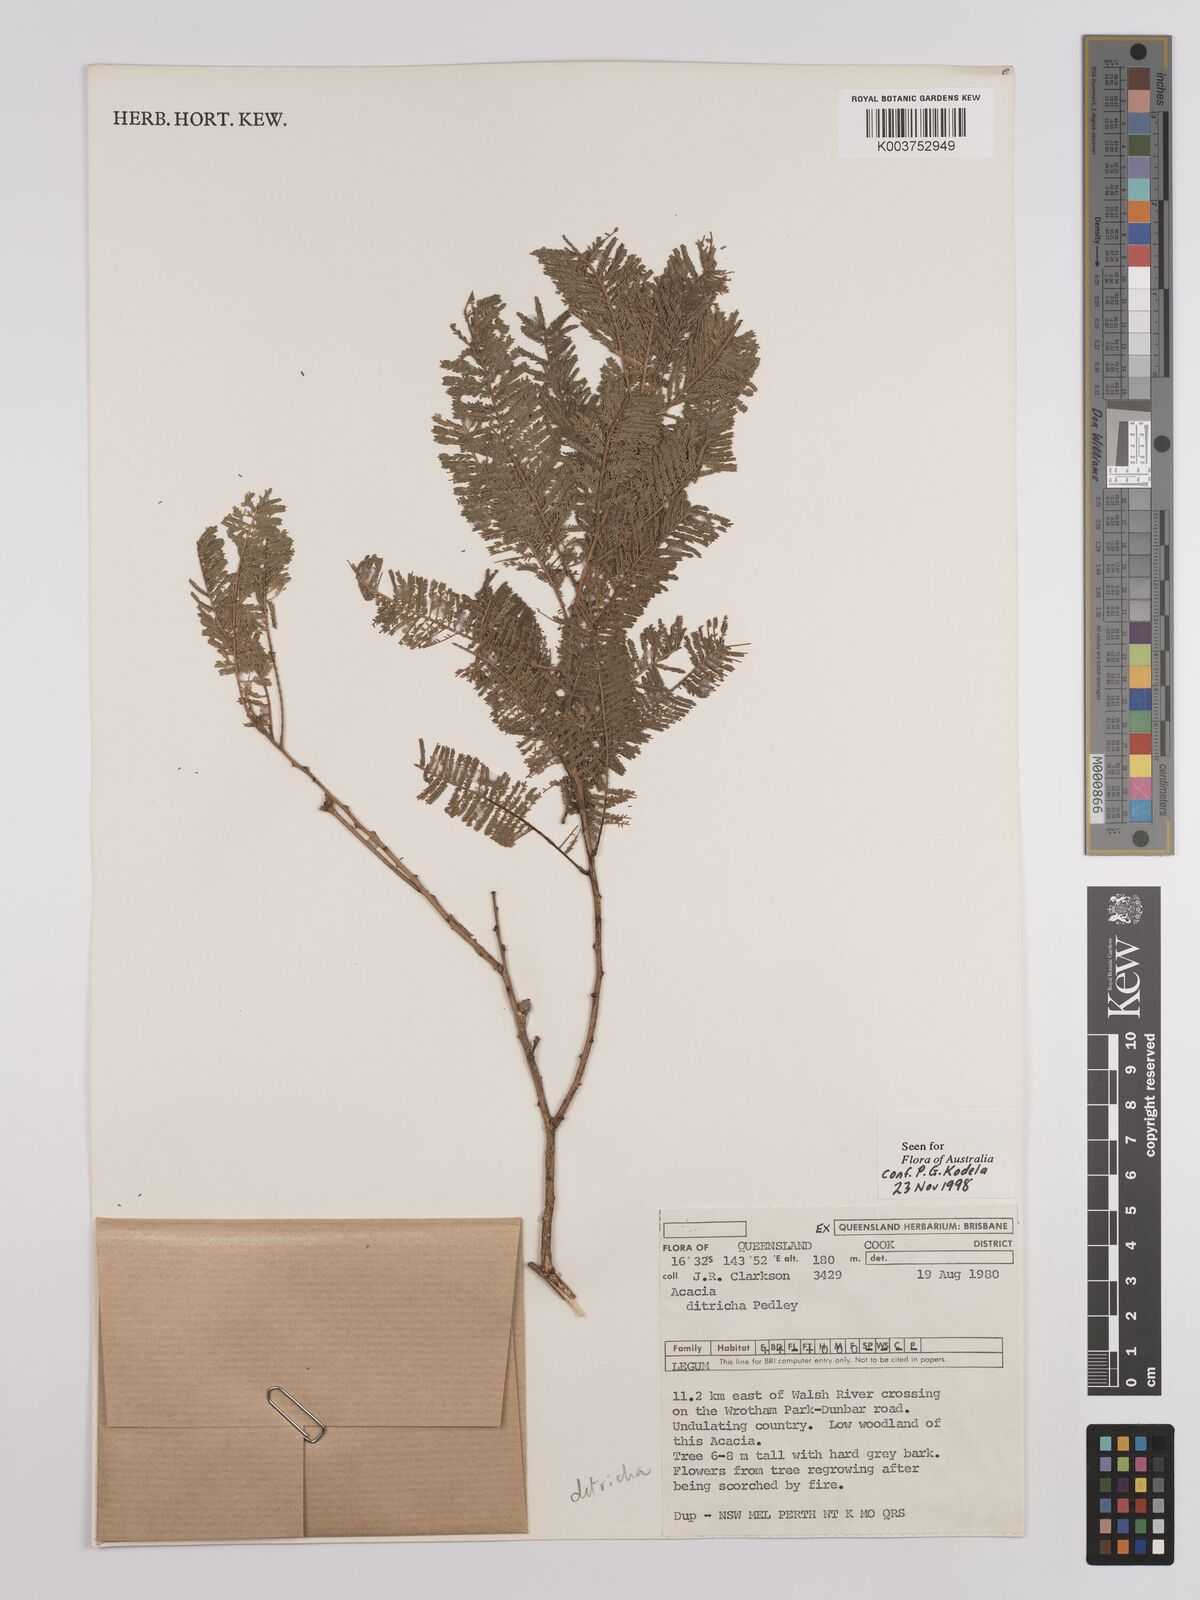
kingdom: Plantae
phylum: Tracheophyta
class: Magnoliopsida
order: Fabales
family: Fabaceae
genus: Vachellia
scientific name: Vachellia ditricha
